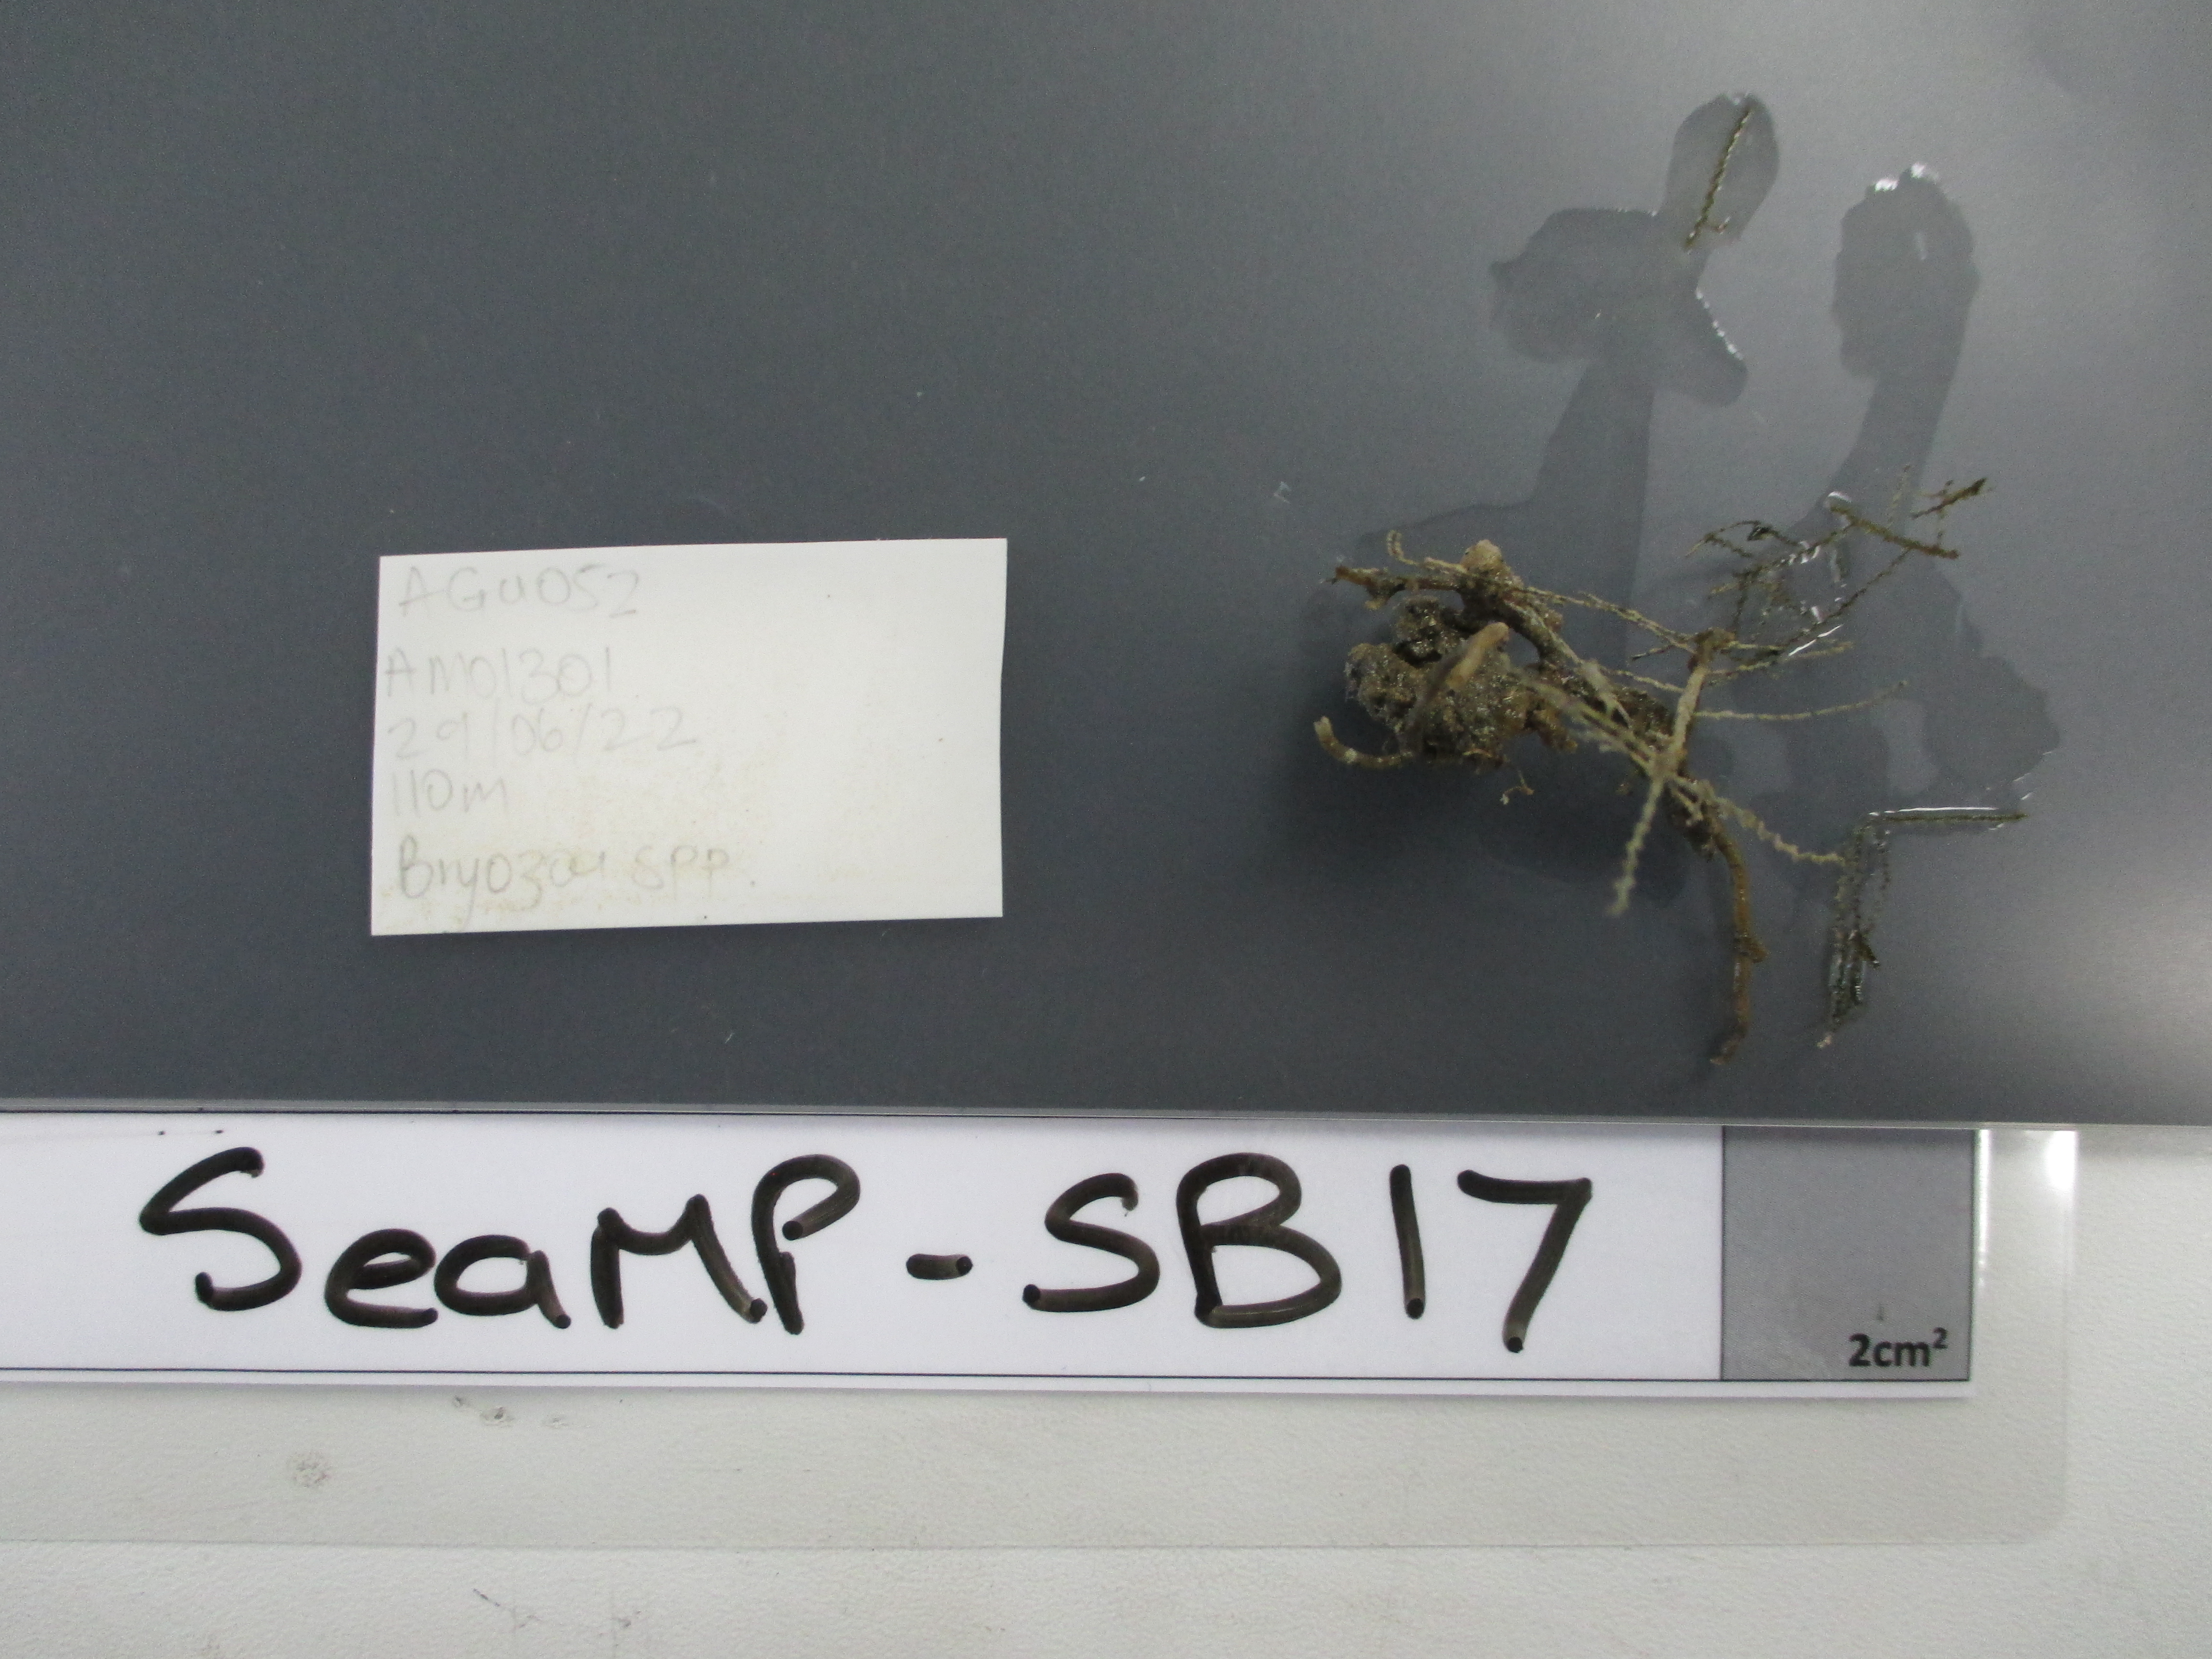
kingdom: Animalia
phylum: Bryozoa
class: Gymnolaemata
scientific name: Gymnolaemata
